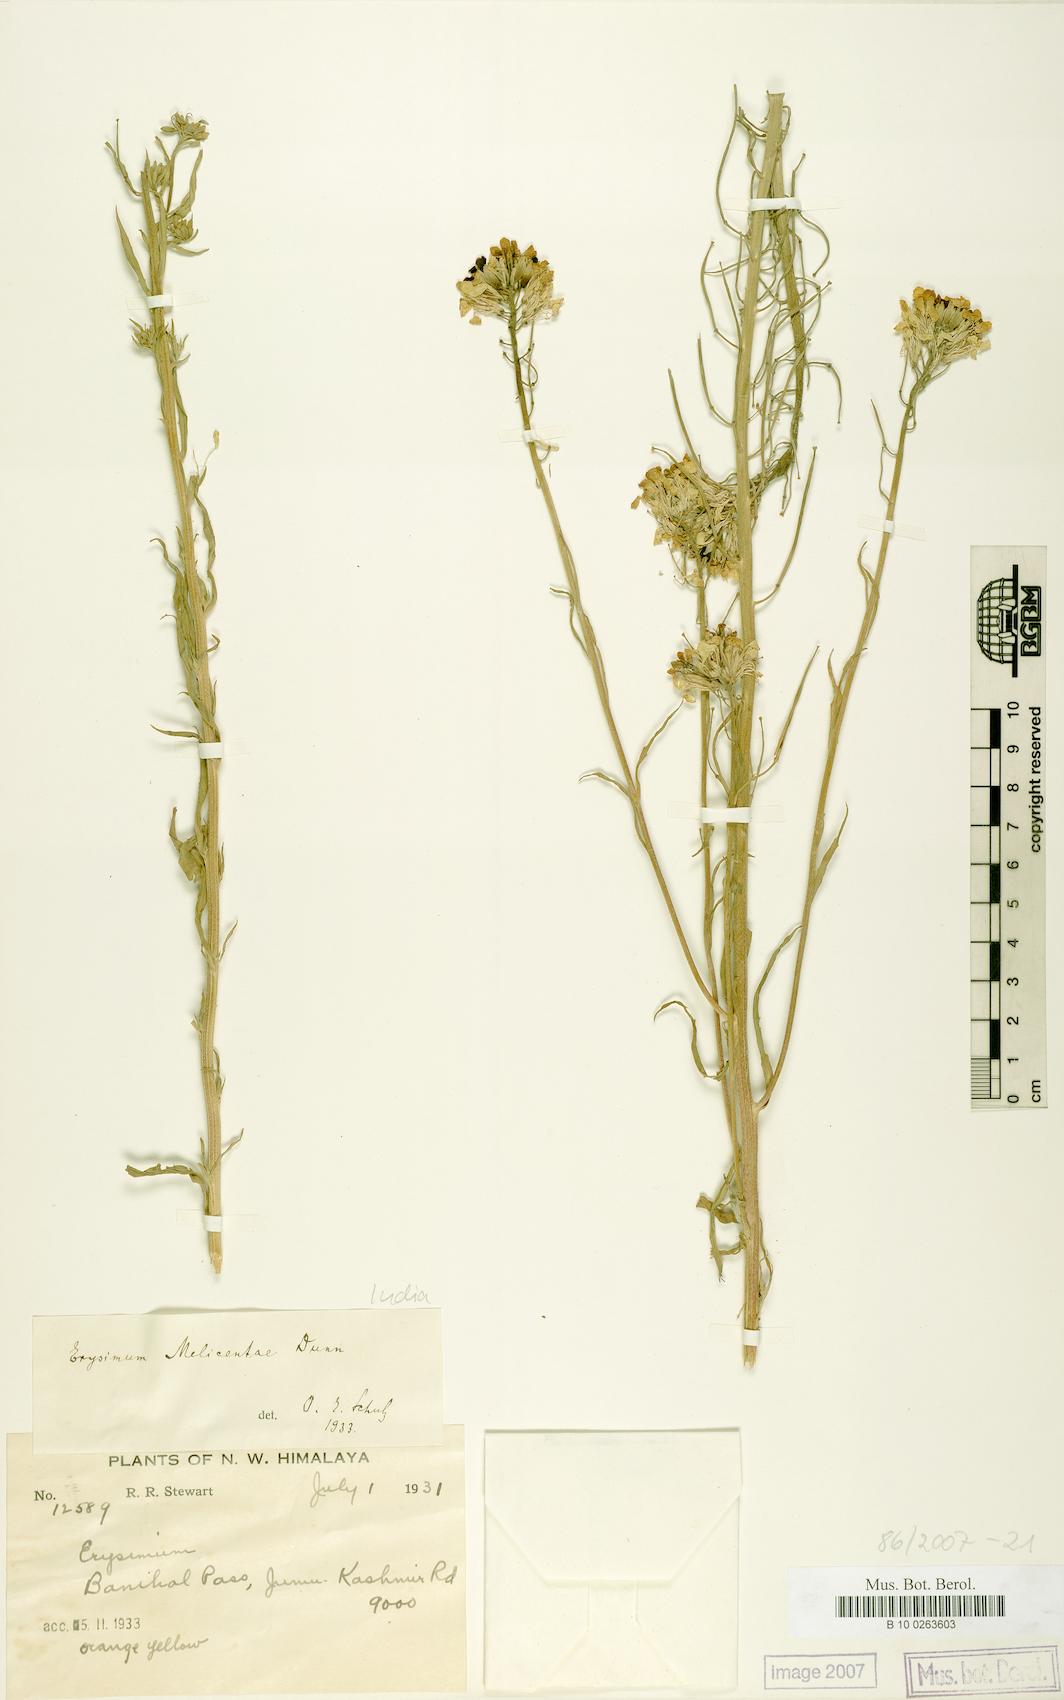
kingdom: Plantae
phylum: Tracheophyta
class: Magnoliopsida
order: Brassicales
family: Brassicaceae
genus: Erysimum
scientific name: Erysimum melicentae
